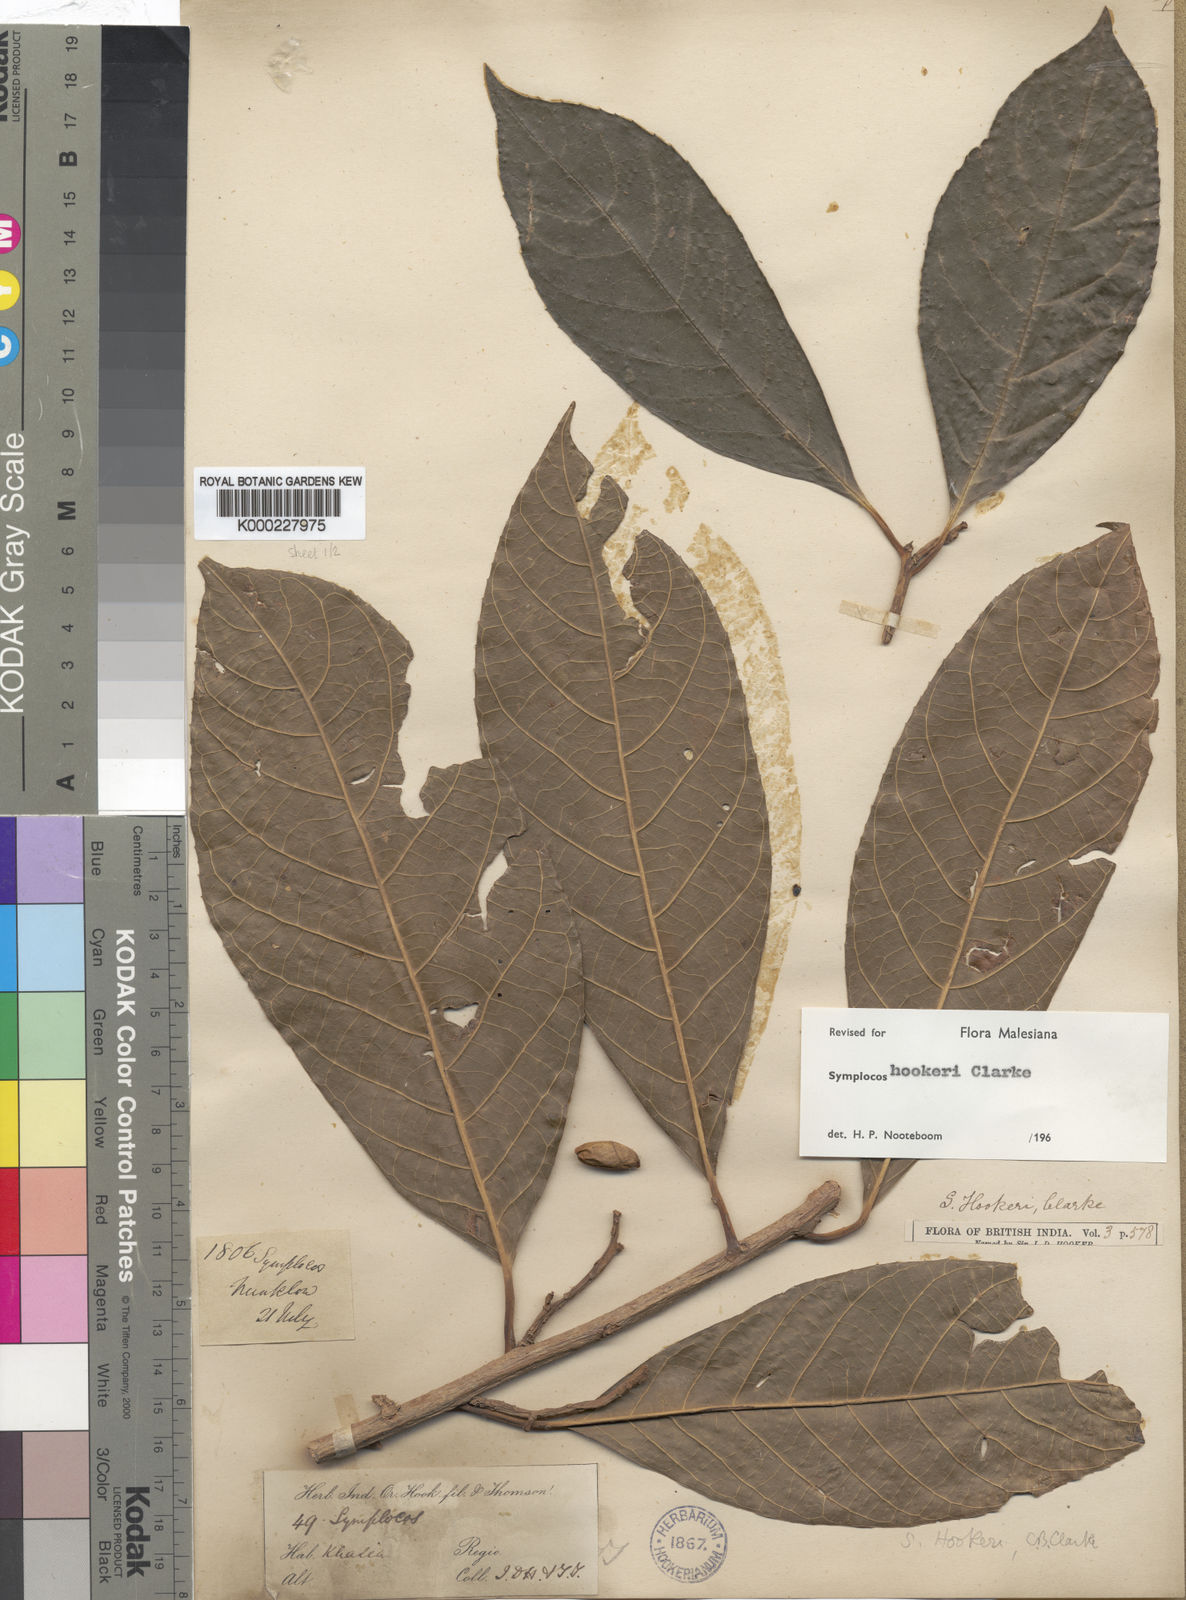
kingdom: Plantae
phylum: Tracheophyta
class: Magnoliopsida
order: Ericales
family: Symplocaceae
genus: Symplocos
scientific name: Symplocos hookeri
